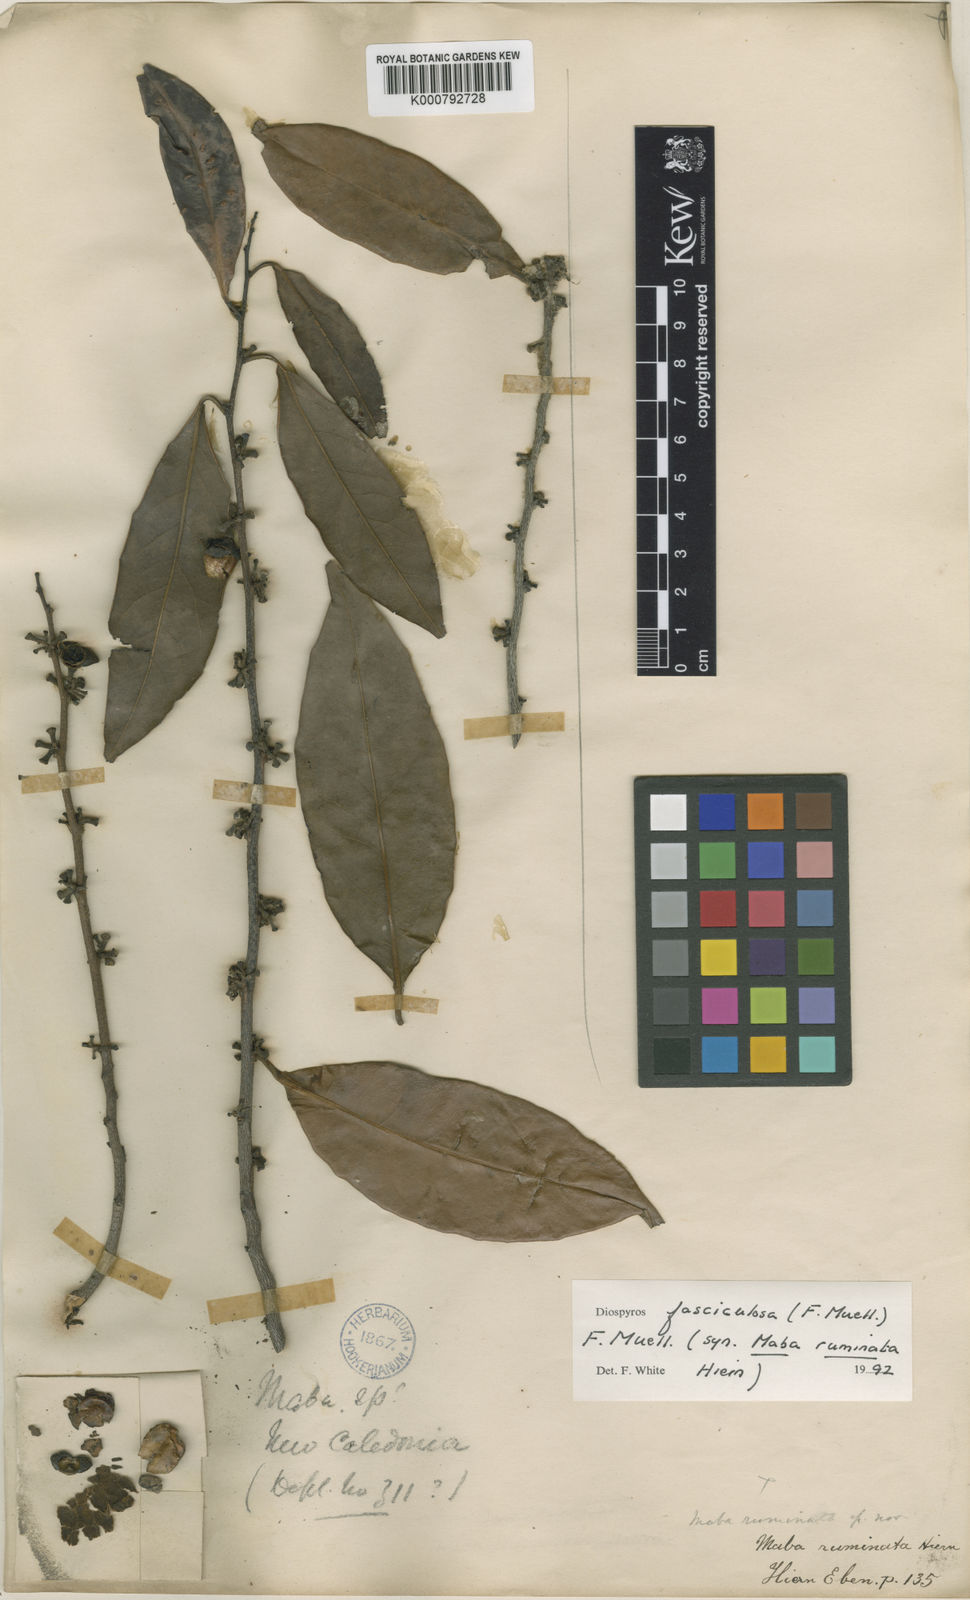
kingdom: Plantae
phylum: Tracheophyta
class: Magnoliopsida
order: Ericales
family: Ebenaceae
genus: Diospyros
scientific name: Diospyros fasciculosa
